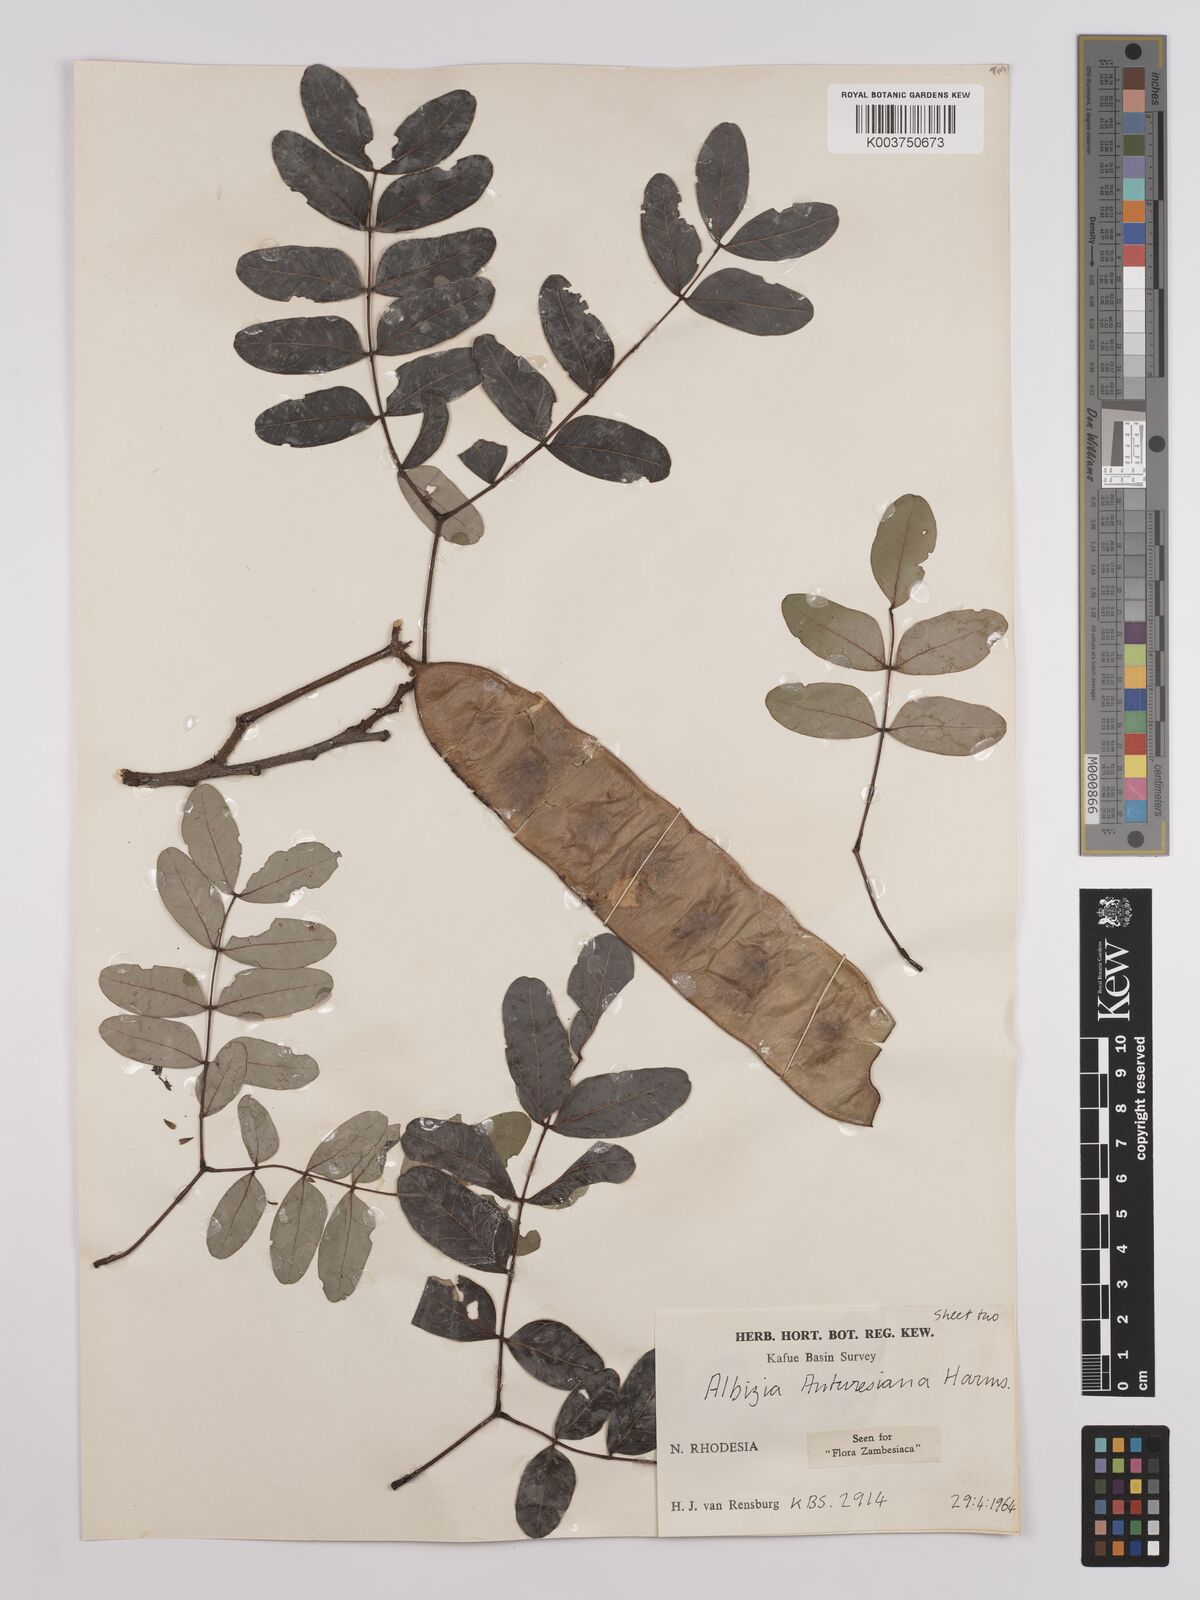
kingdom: Plantae
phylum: Tracheophyta
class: Magnoliopsida
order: Fabales
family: Fabaceae
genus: Albizia
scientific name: Albizia antunesiana
